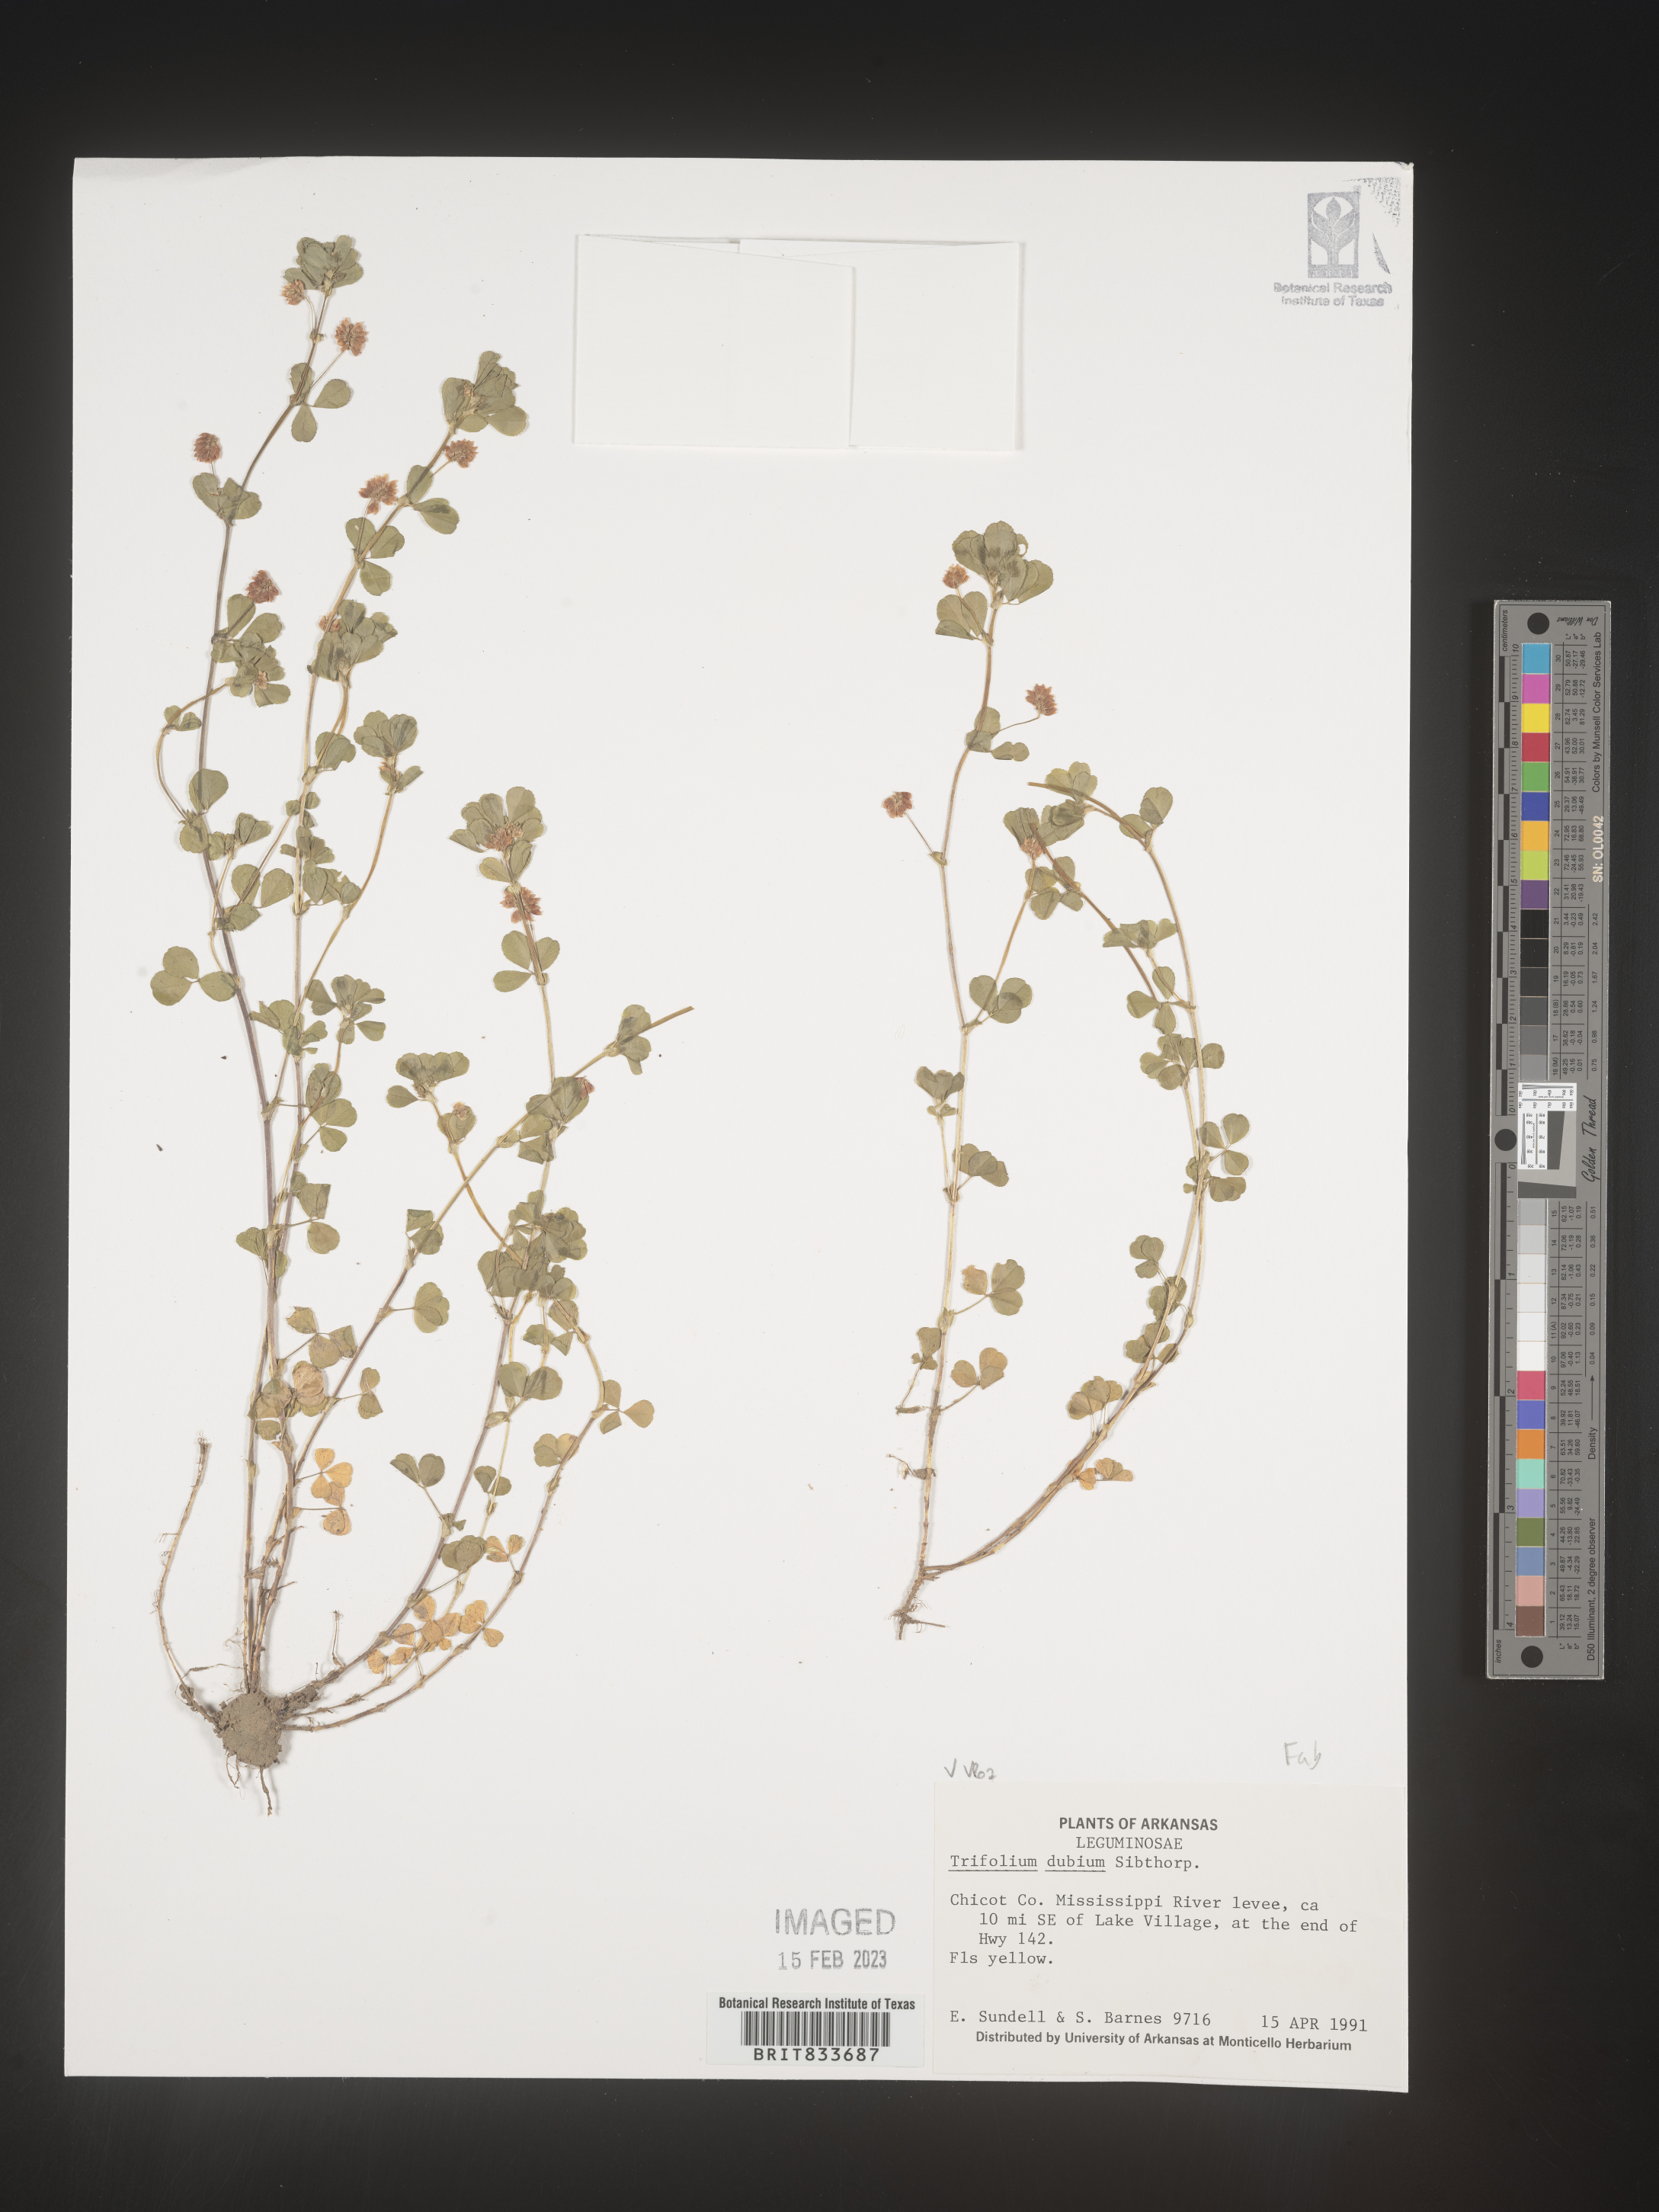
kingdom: Plantae
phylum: Tracheophyta
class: Magnoliopsida
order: Fabales
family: Fabaceae
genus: Trifolium
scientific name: Trifolium dubium
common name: Suckling clover
